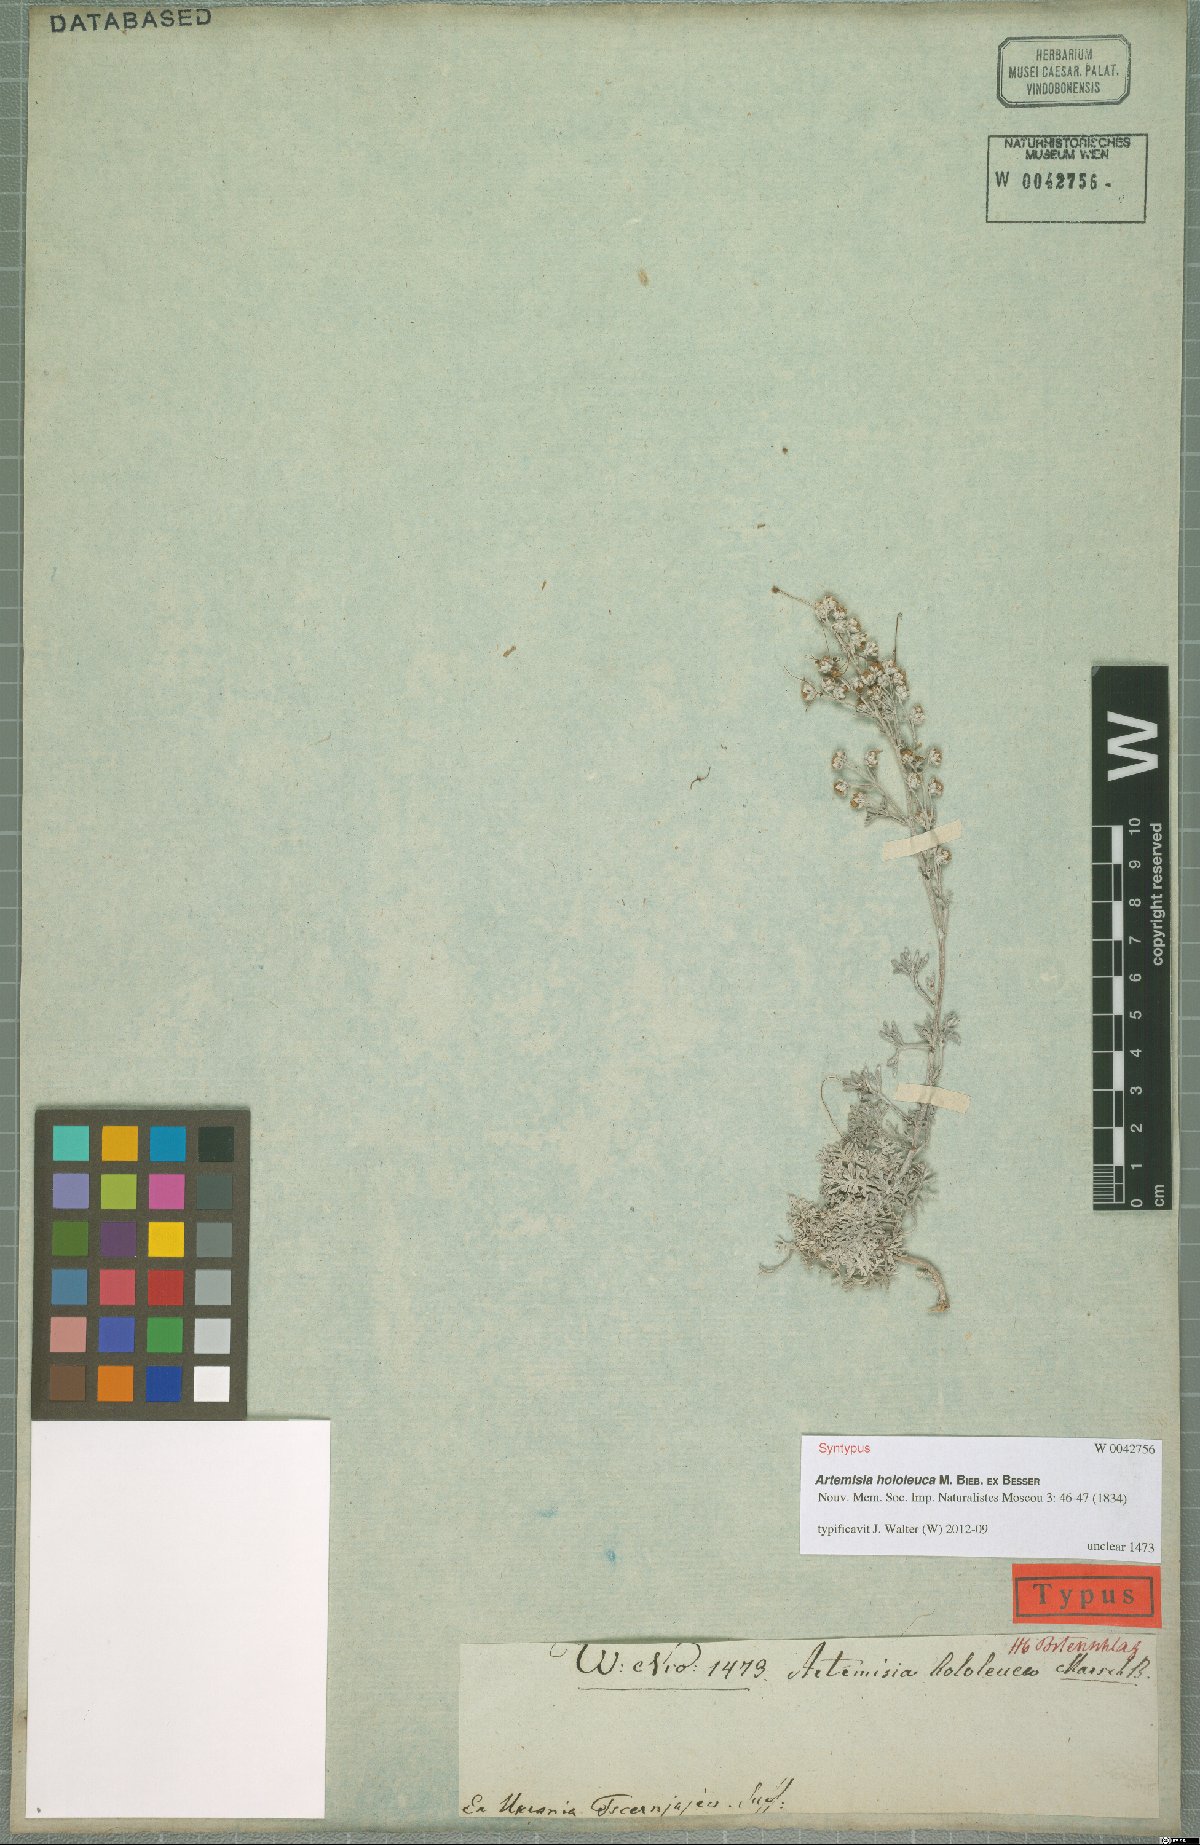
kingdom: Plantae
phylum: Tracheophyta
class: Magnoliopsida
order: Asterales
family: Asteraceae
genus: Artemisia
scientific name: Artemisia hololeuca
